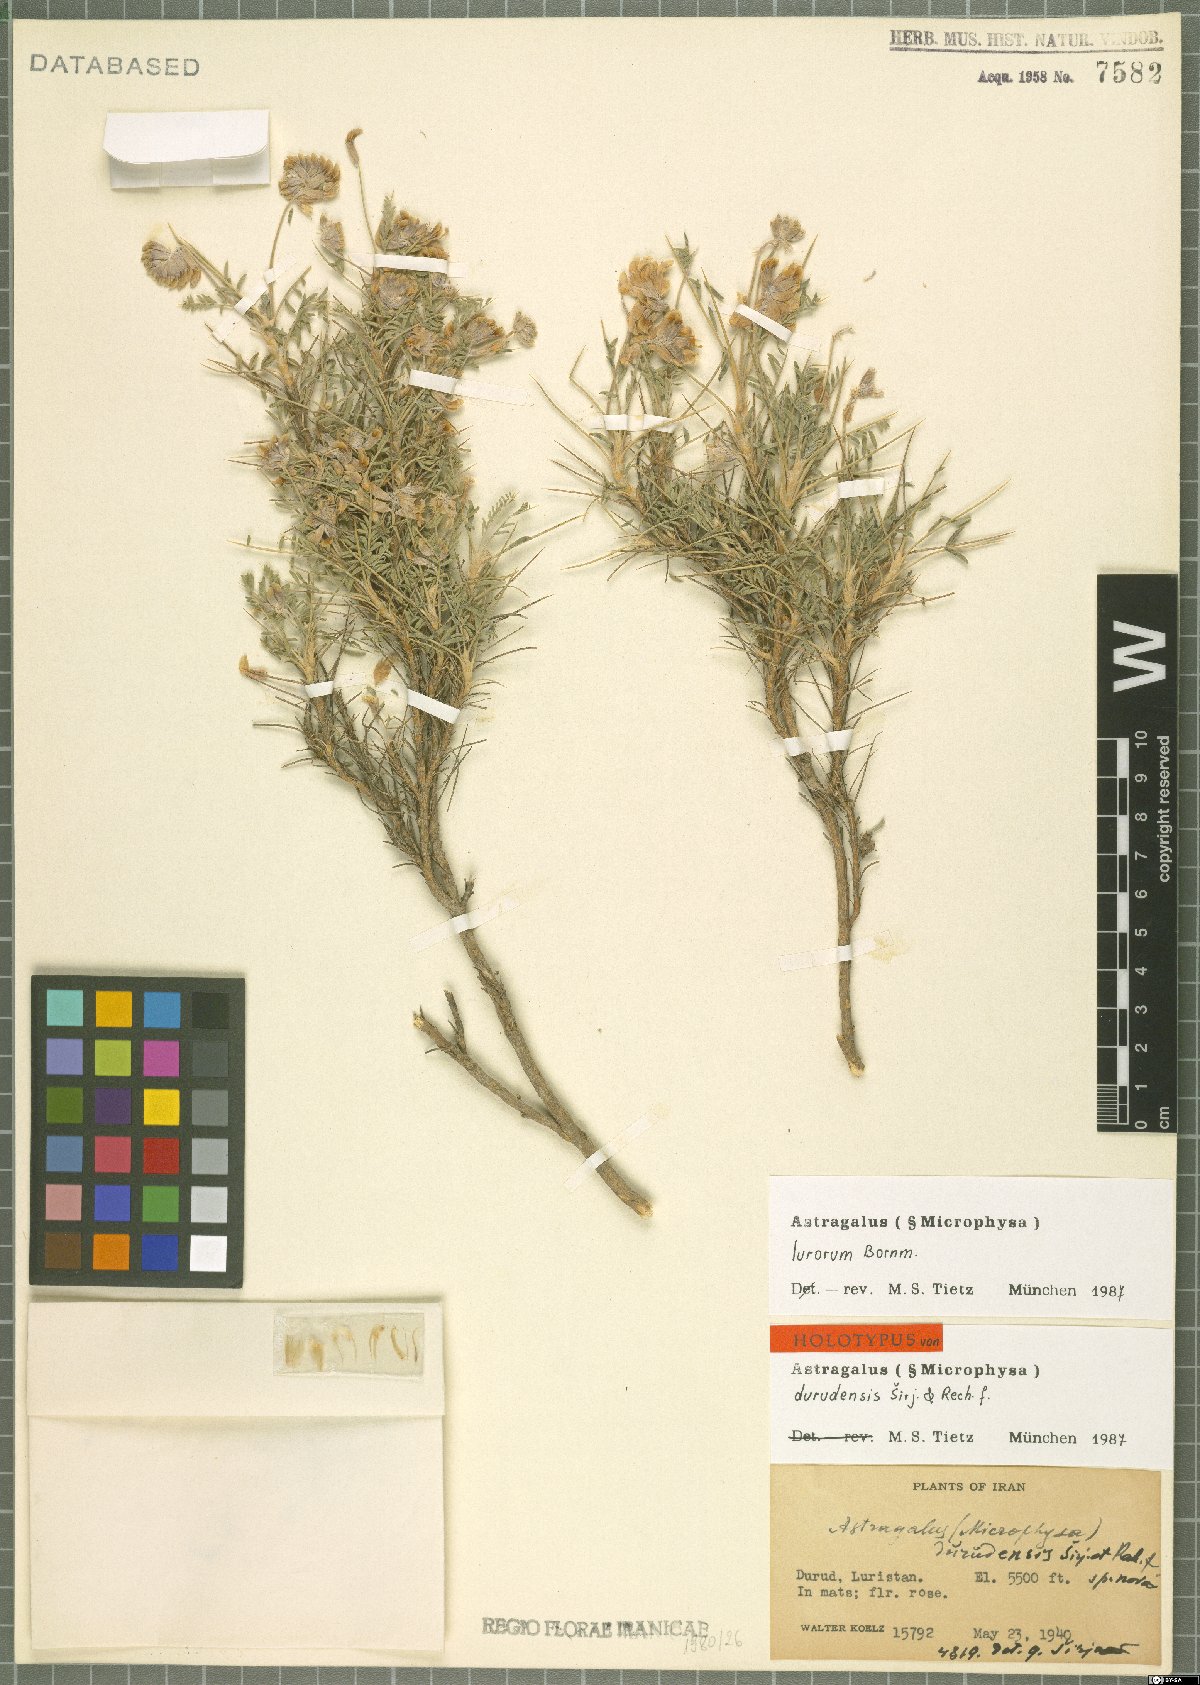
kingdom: Plantae
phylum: Tracheophyta
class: Magnoliopsida
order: Fabales
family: Fabaceae
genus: Astragalus
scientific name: Astragalus lurorum
